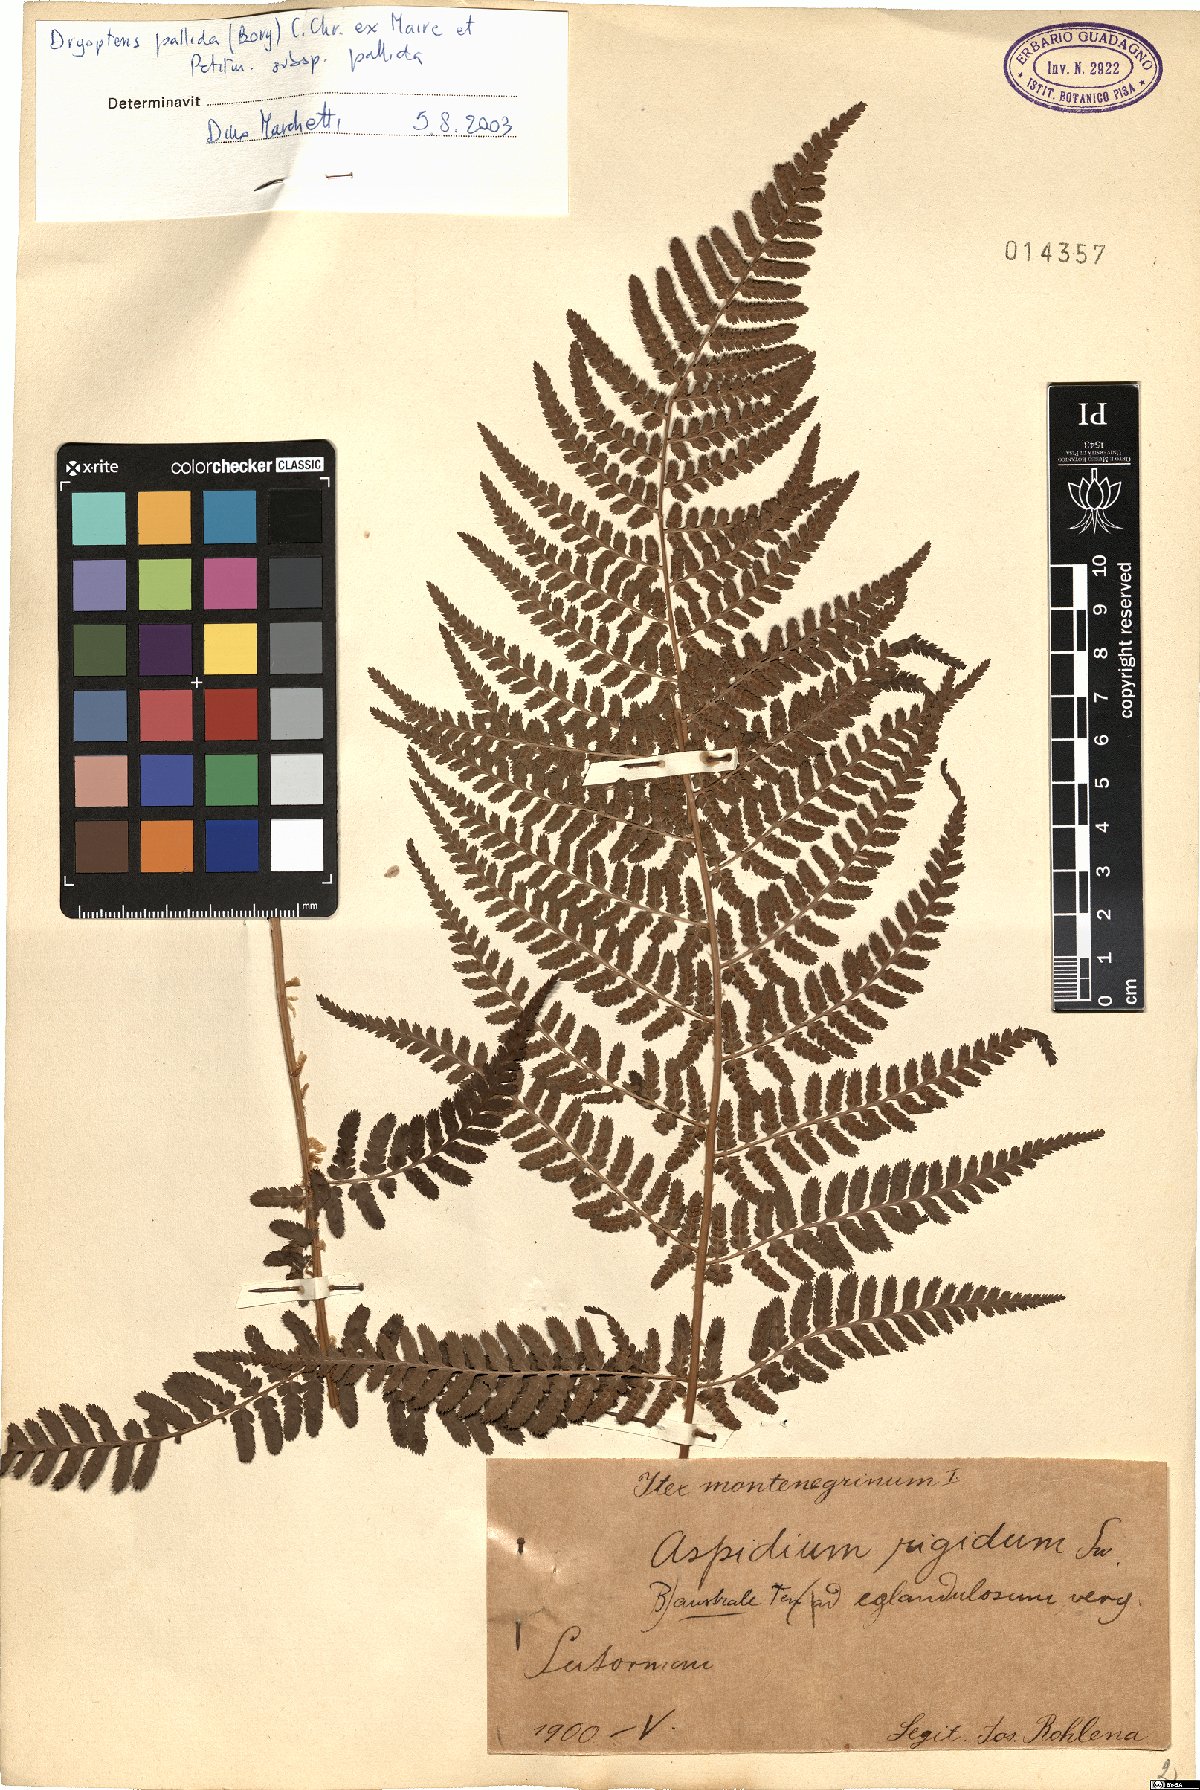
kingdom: Plantae
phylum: Tracheophyta
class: Polypodiopsida
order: Polypodiales
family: Dryopteridaceae
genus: Dryopteris
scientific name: Dryopteris pallida
